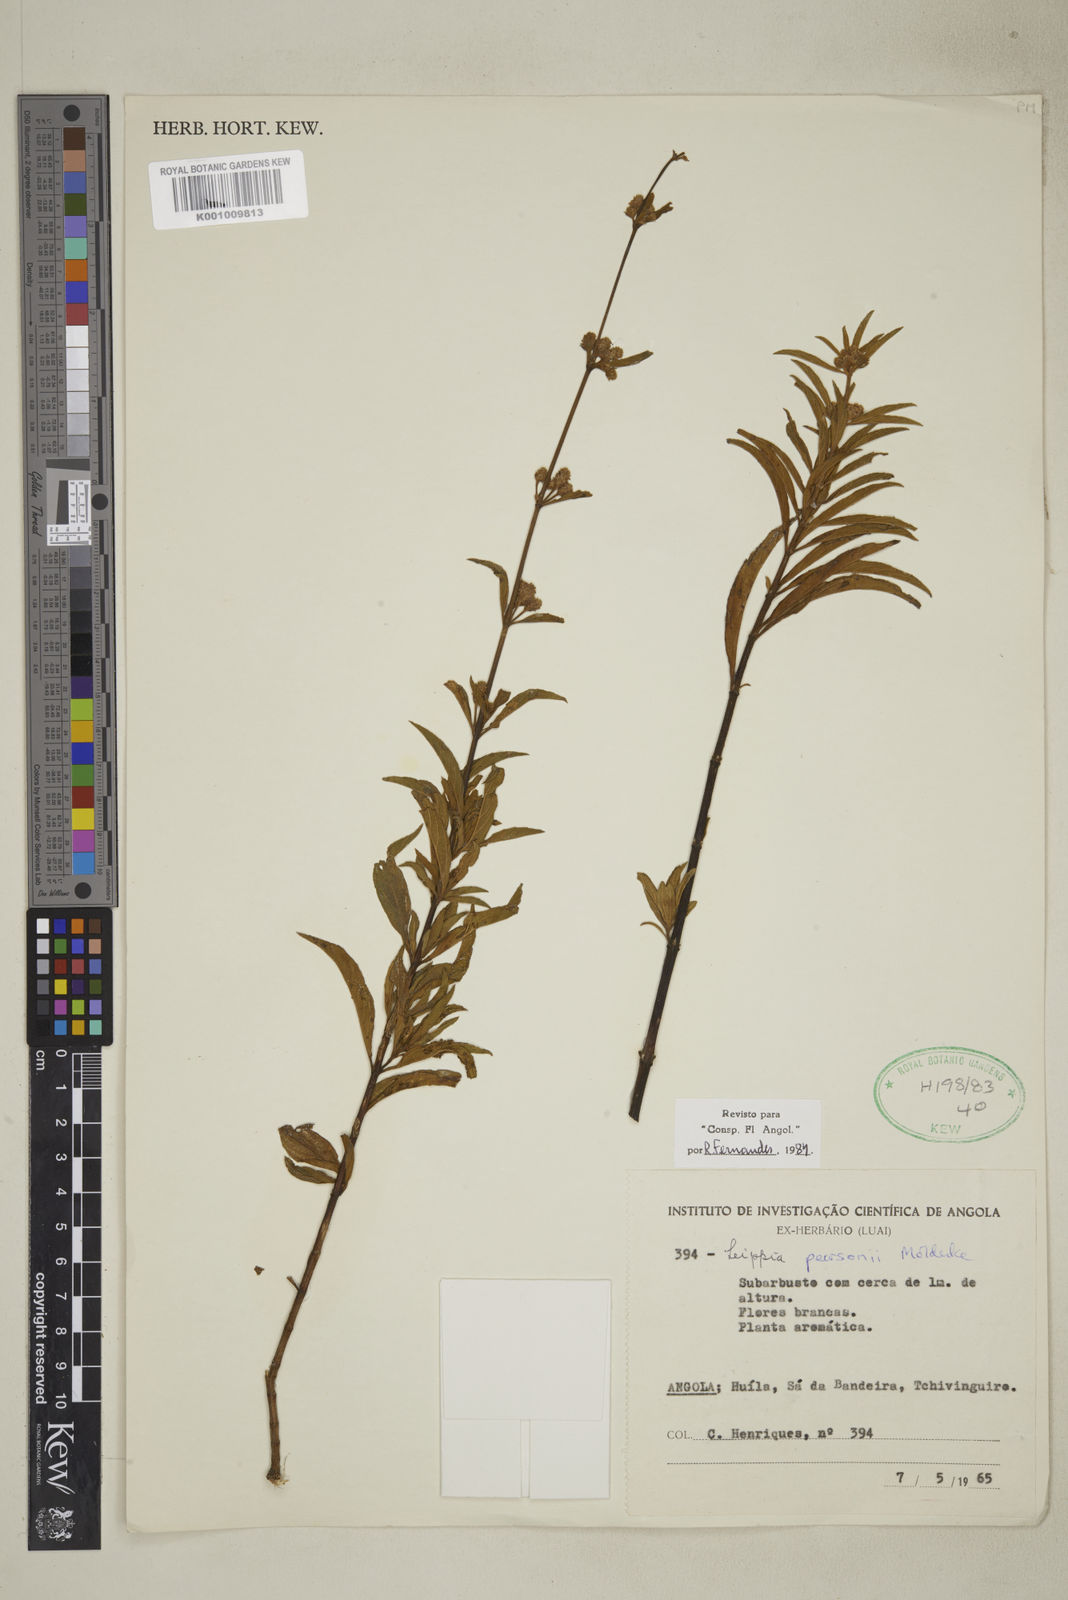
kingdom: Plantae
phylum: Tracheophyta
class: Magnoliopsida
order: Lamiales
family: Verbenaceae
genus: Lippia
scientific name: Lippia pearsonii
